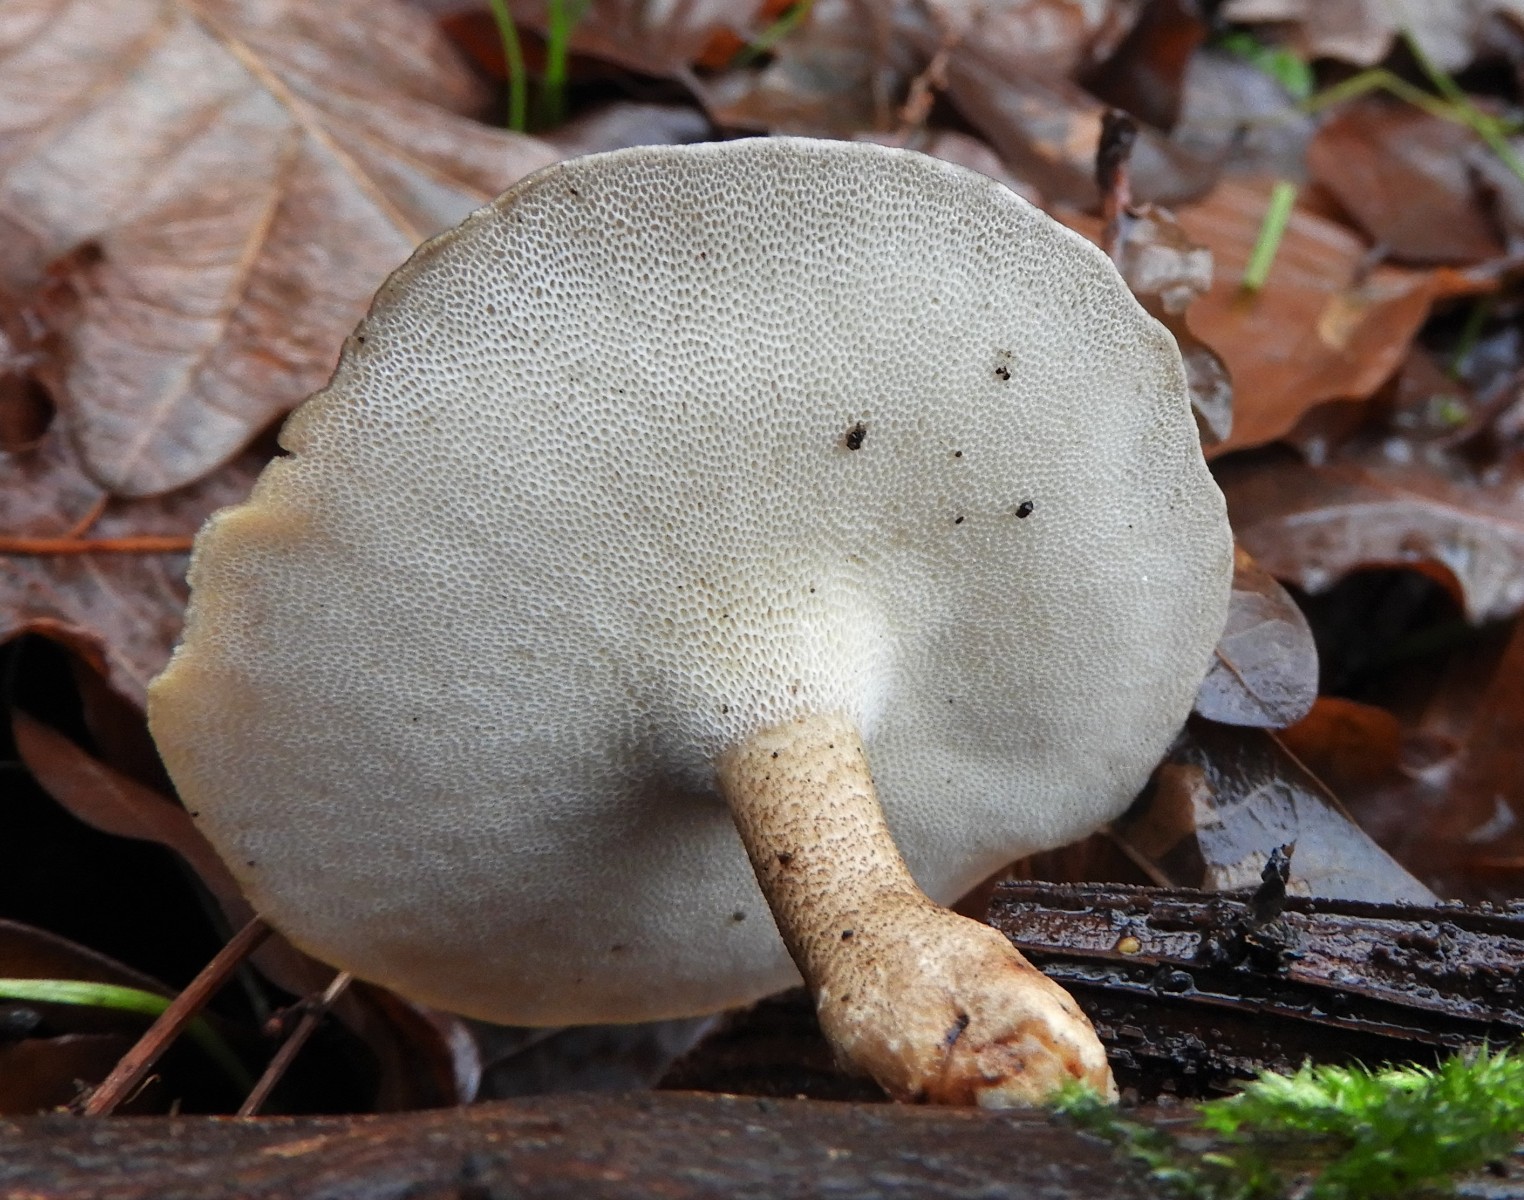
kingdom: Fungi
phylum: Basidiomycota
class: Agaricomycetes
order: Polyporales
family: Polyporaceae
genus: Lentinus
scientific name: Lentinus brumalis
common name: vinter-stilkporesvamp
